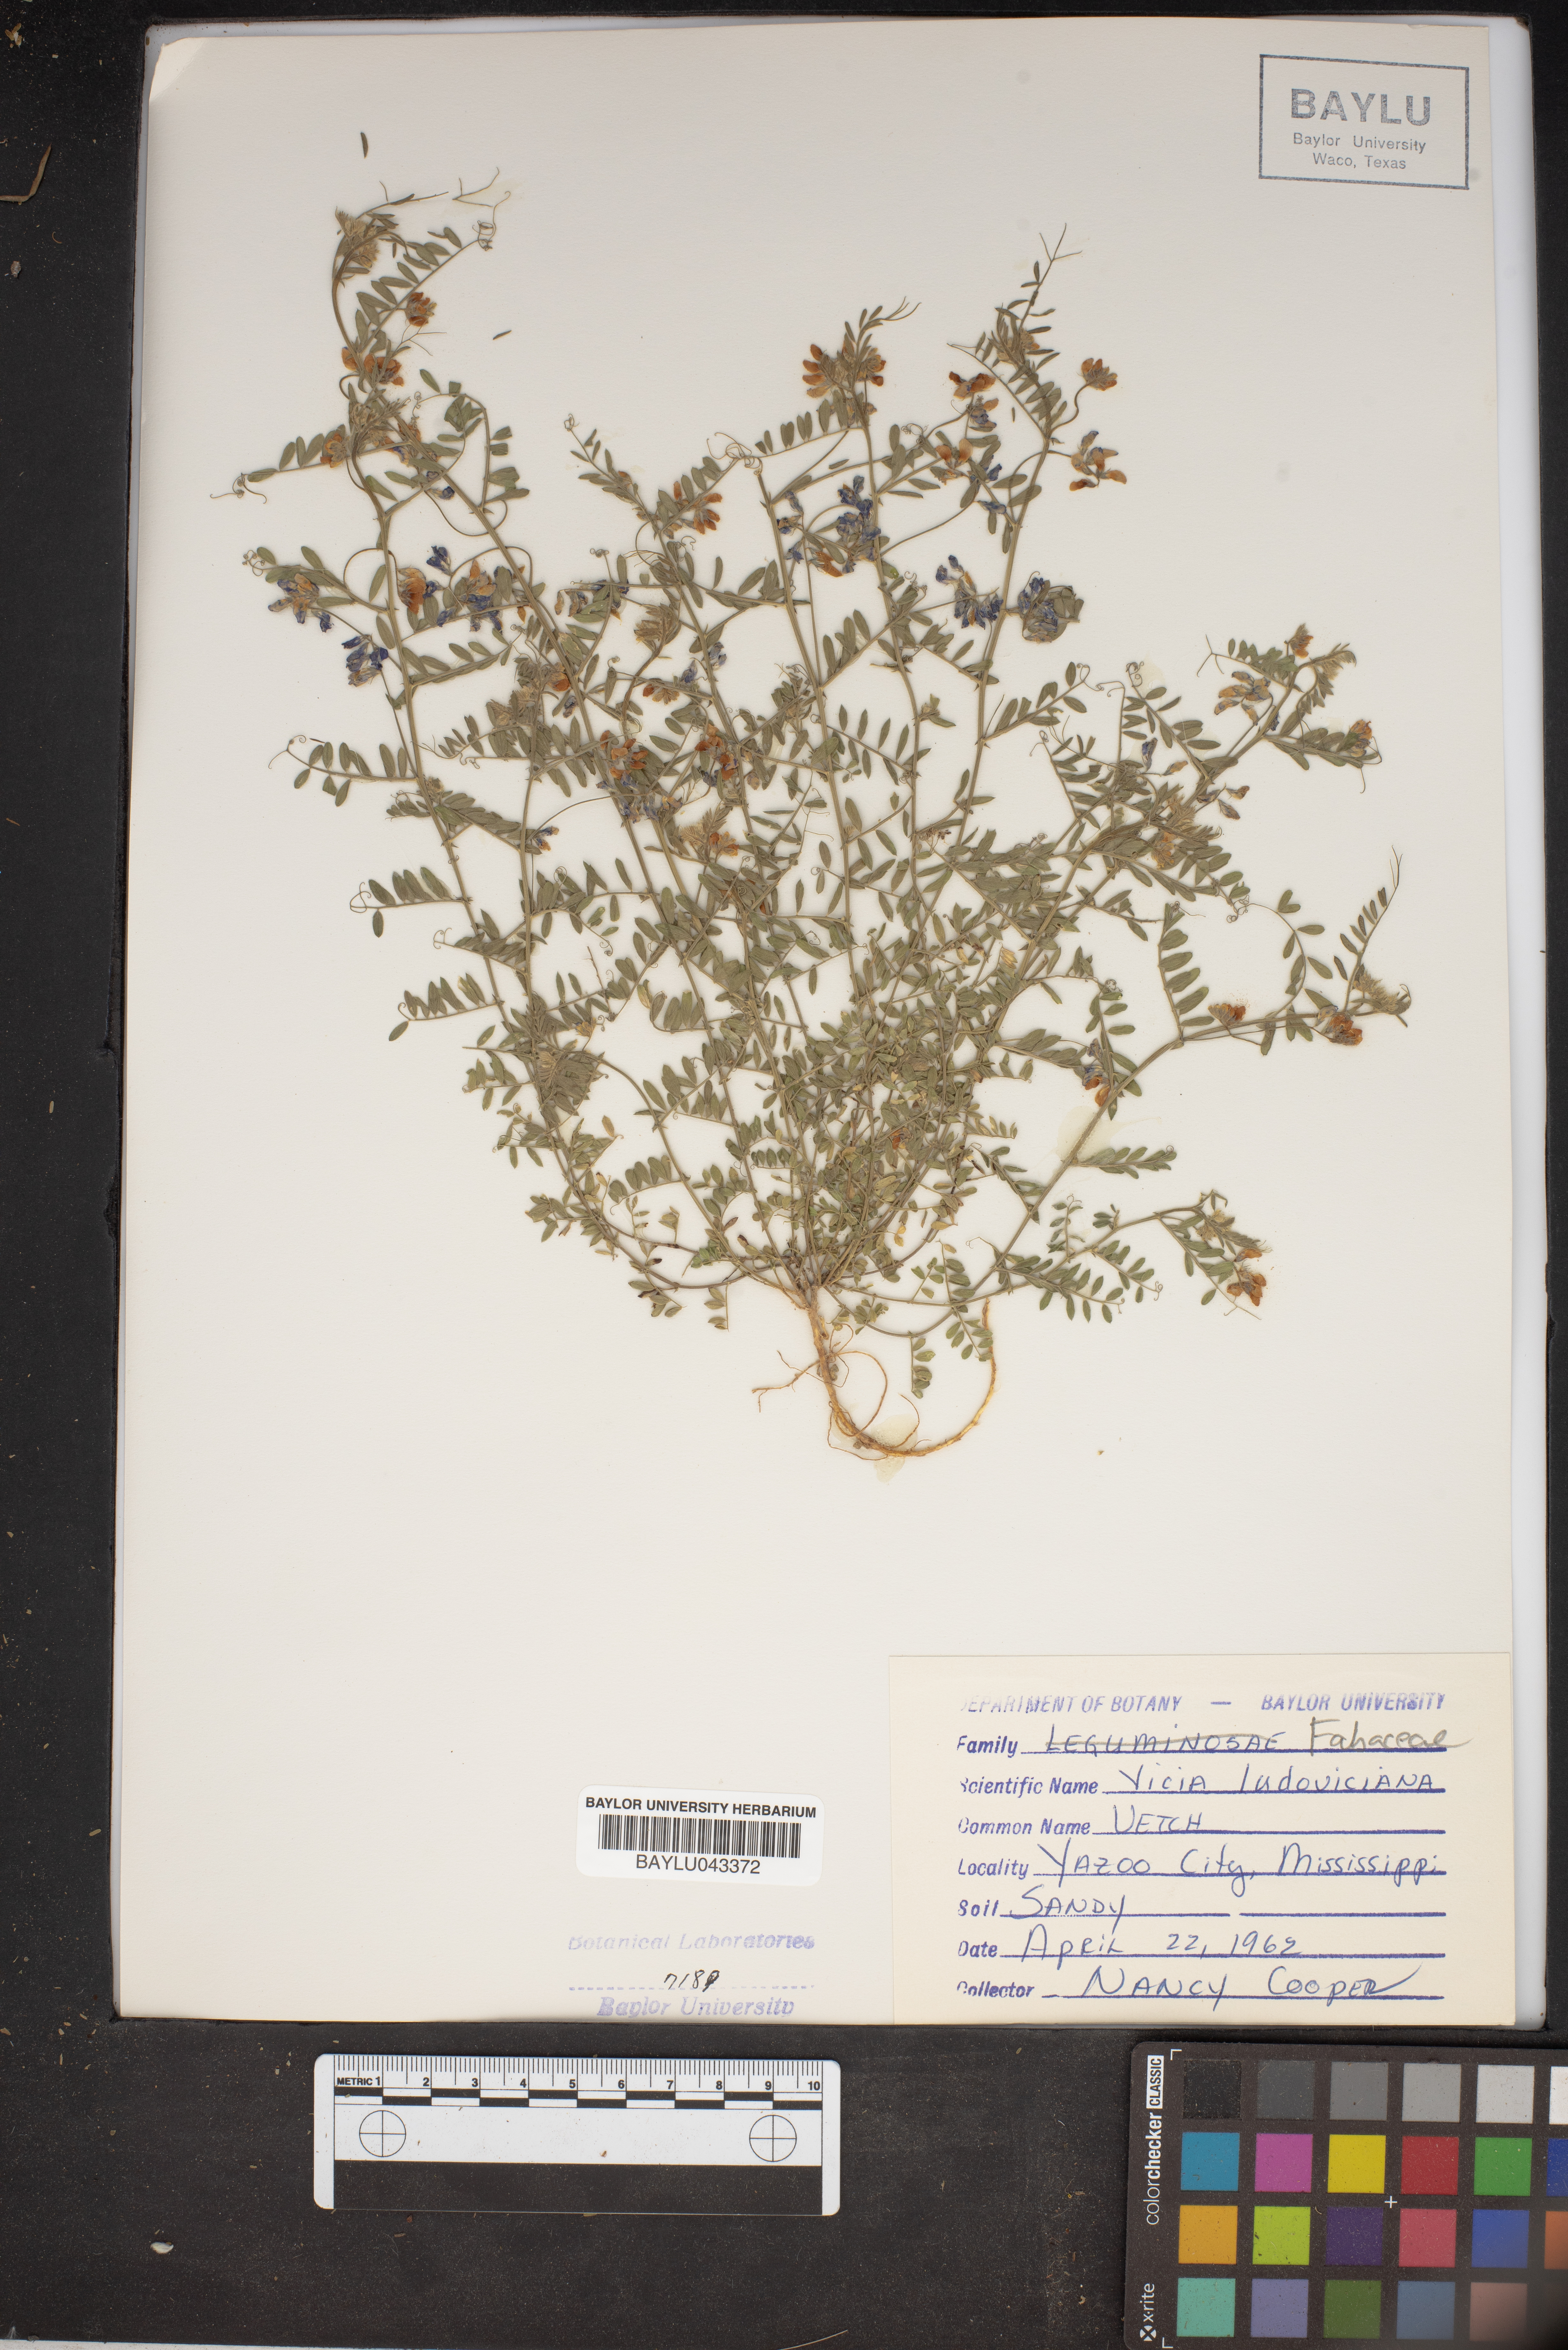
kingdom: Plantae
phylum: Tracheophyta
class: Magnoliopsida
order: Fabales
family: Fabaceae
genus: Vicia
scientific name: Vicia ludoviciana
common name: Louisiana vetch
